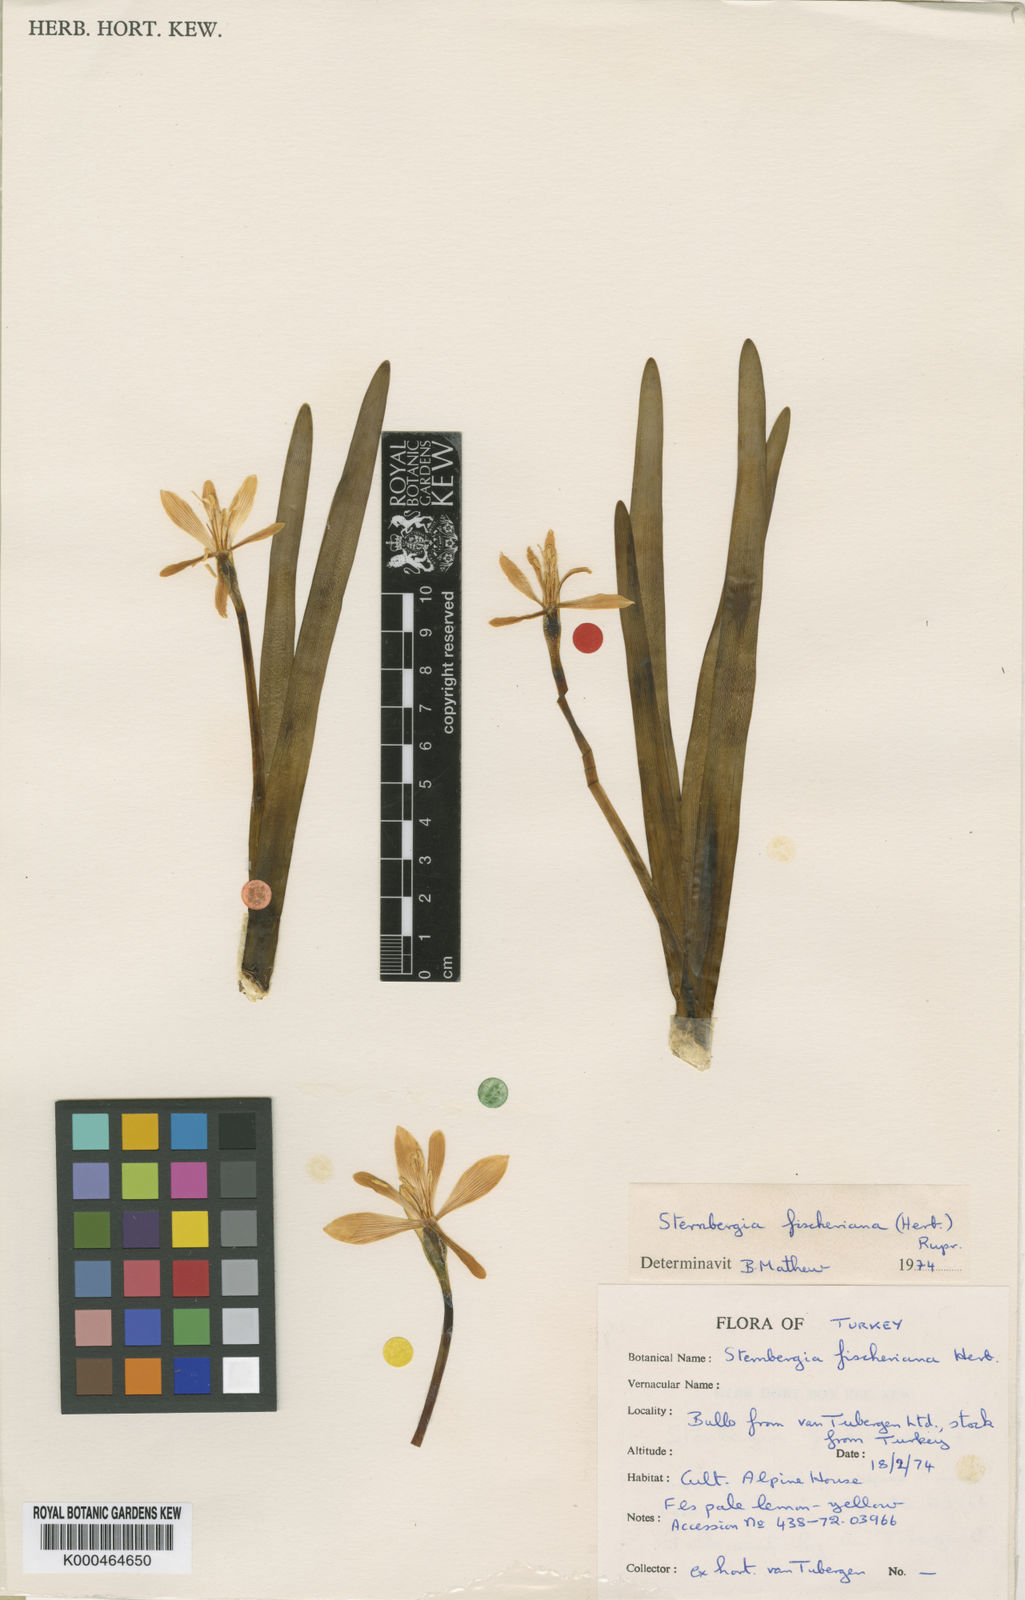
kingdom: Plantae
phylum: Tracheophyta
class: Liliopsida
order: Asparagales
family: Amaryllidaceae
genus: Sternbergia
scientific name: Sternbergia
